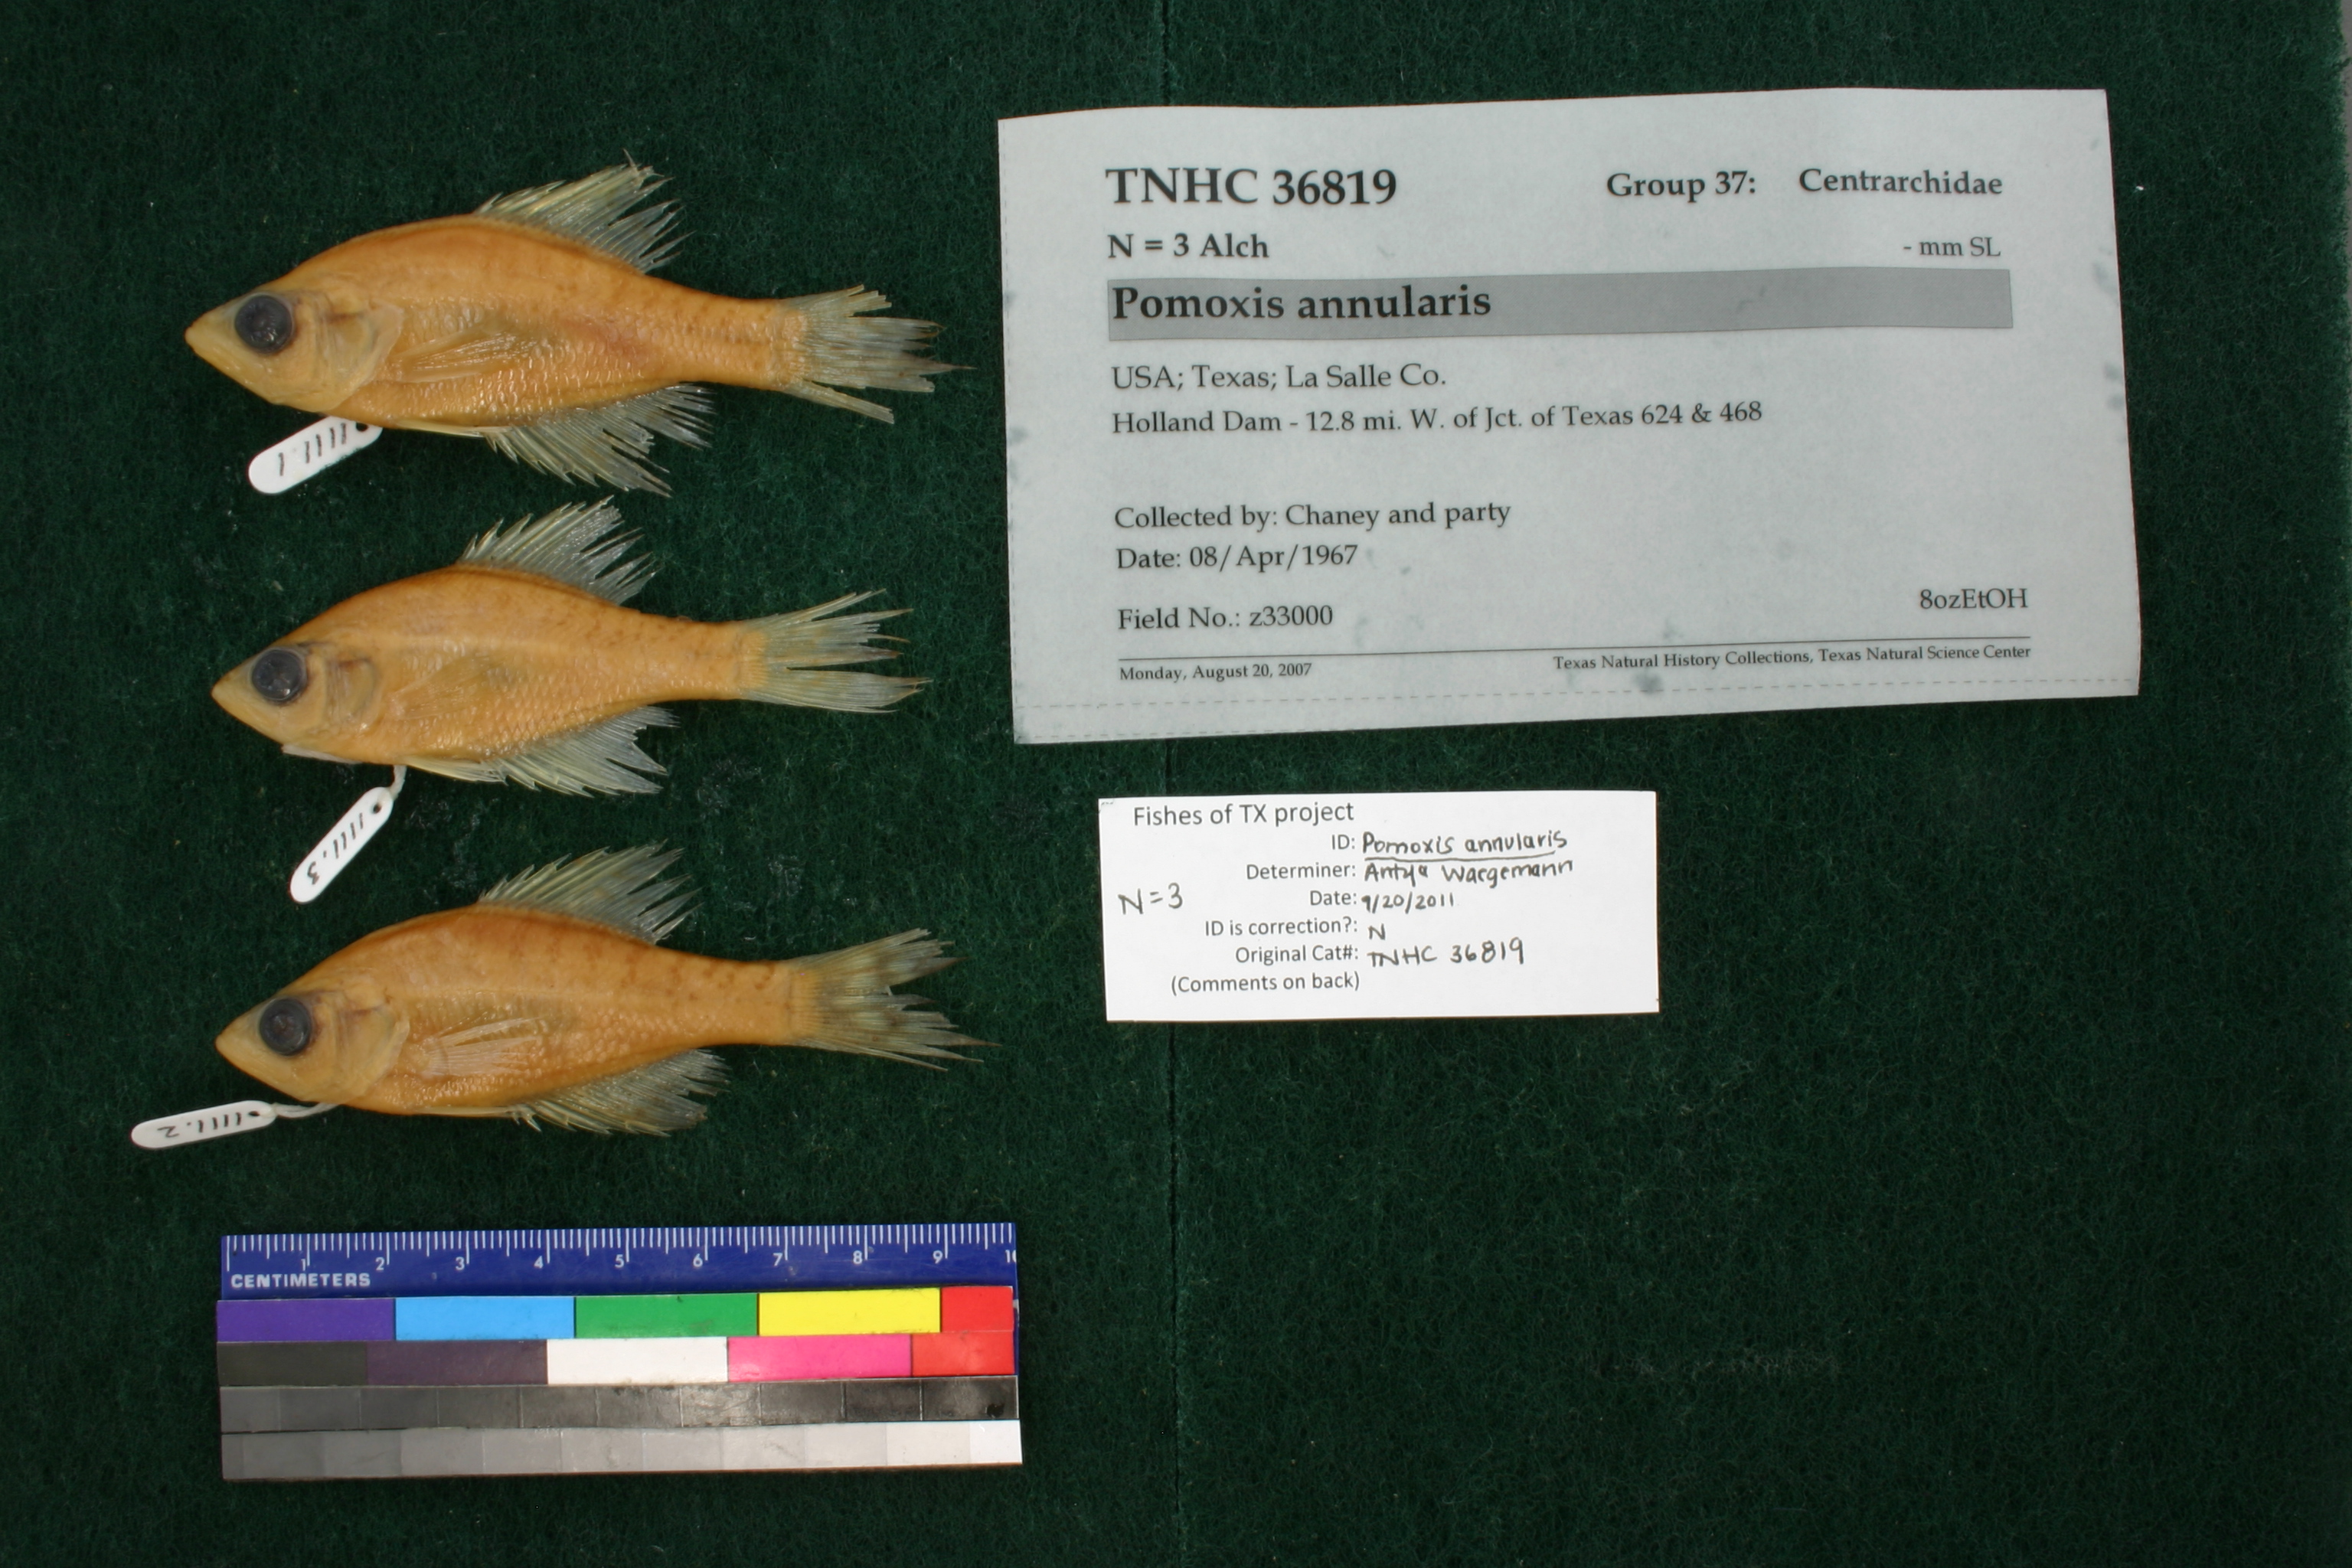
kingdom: Animalia
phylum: Chordata
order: Perciformes
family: Centrarchidae
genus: Pomoxis
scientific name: Pomoxis annularis
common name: White crappie
